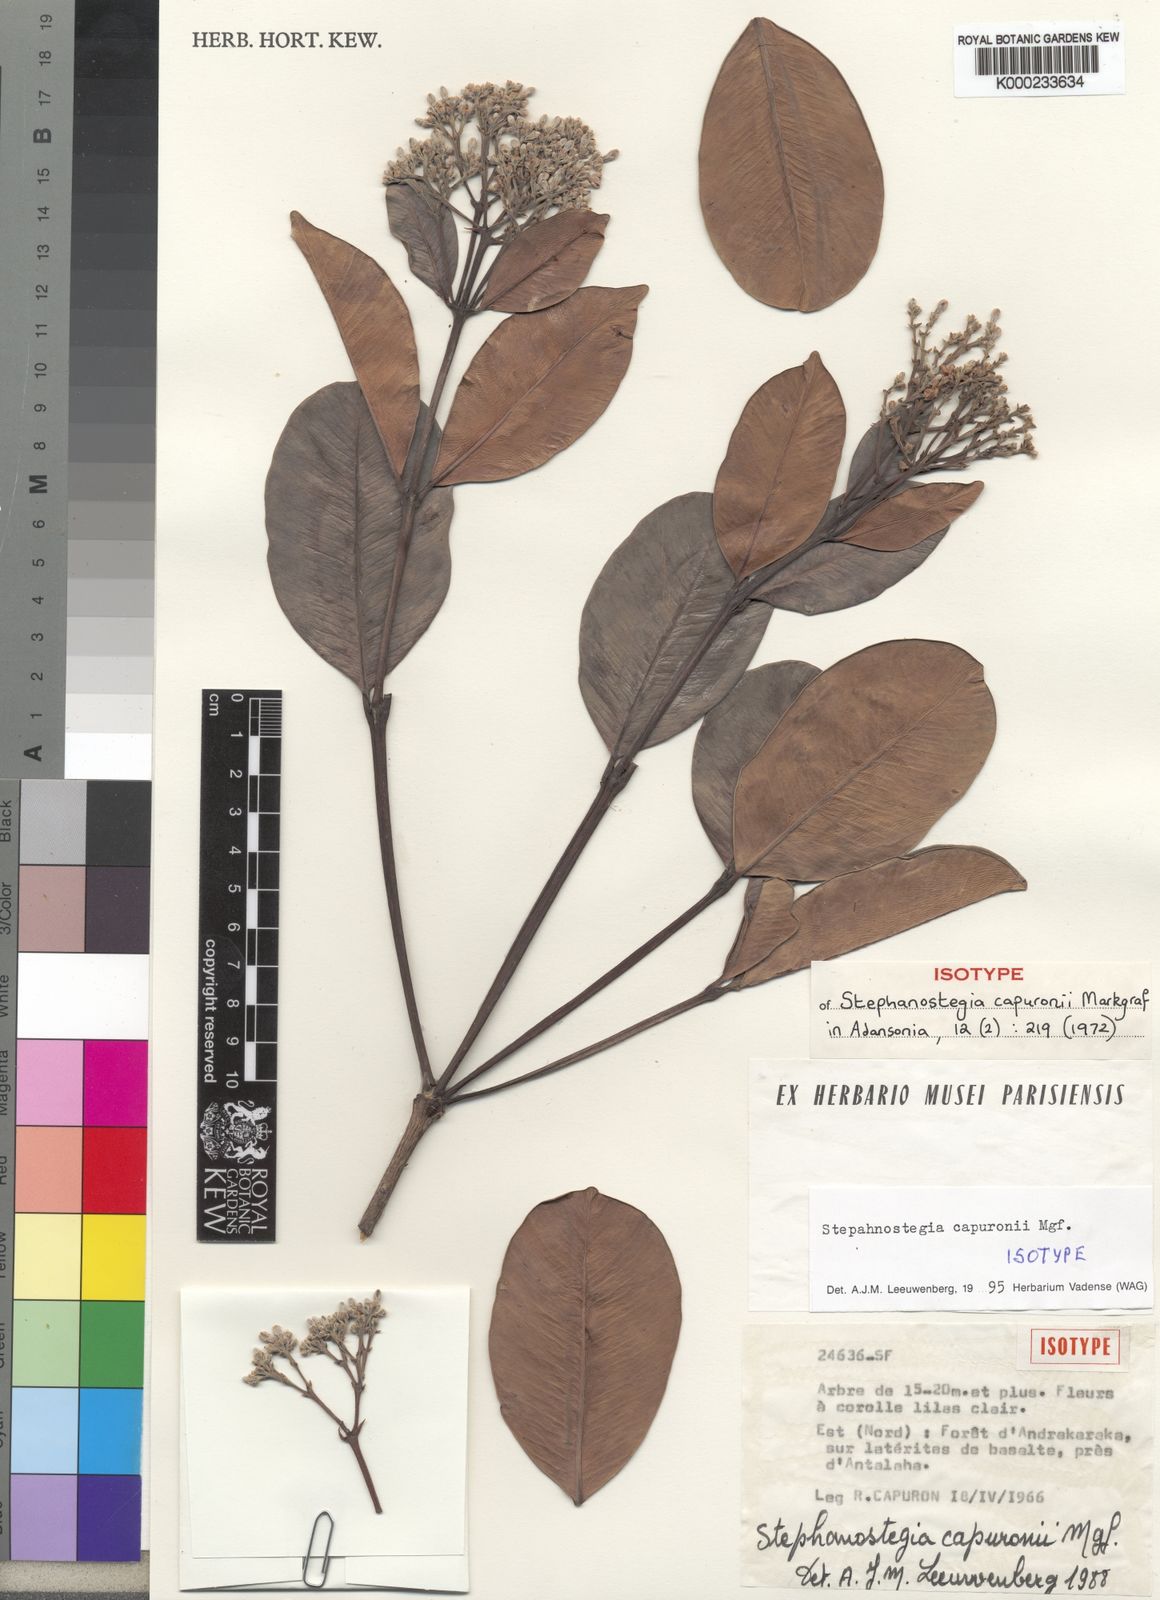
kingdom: Plantae
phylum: Tracheophyta
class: Magnoliopsida
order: Gentianales
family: Apocynaceae
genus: Stephanostegia
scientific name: Stephanostegia capuronii
